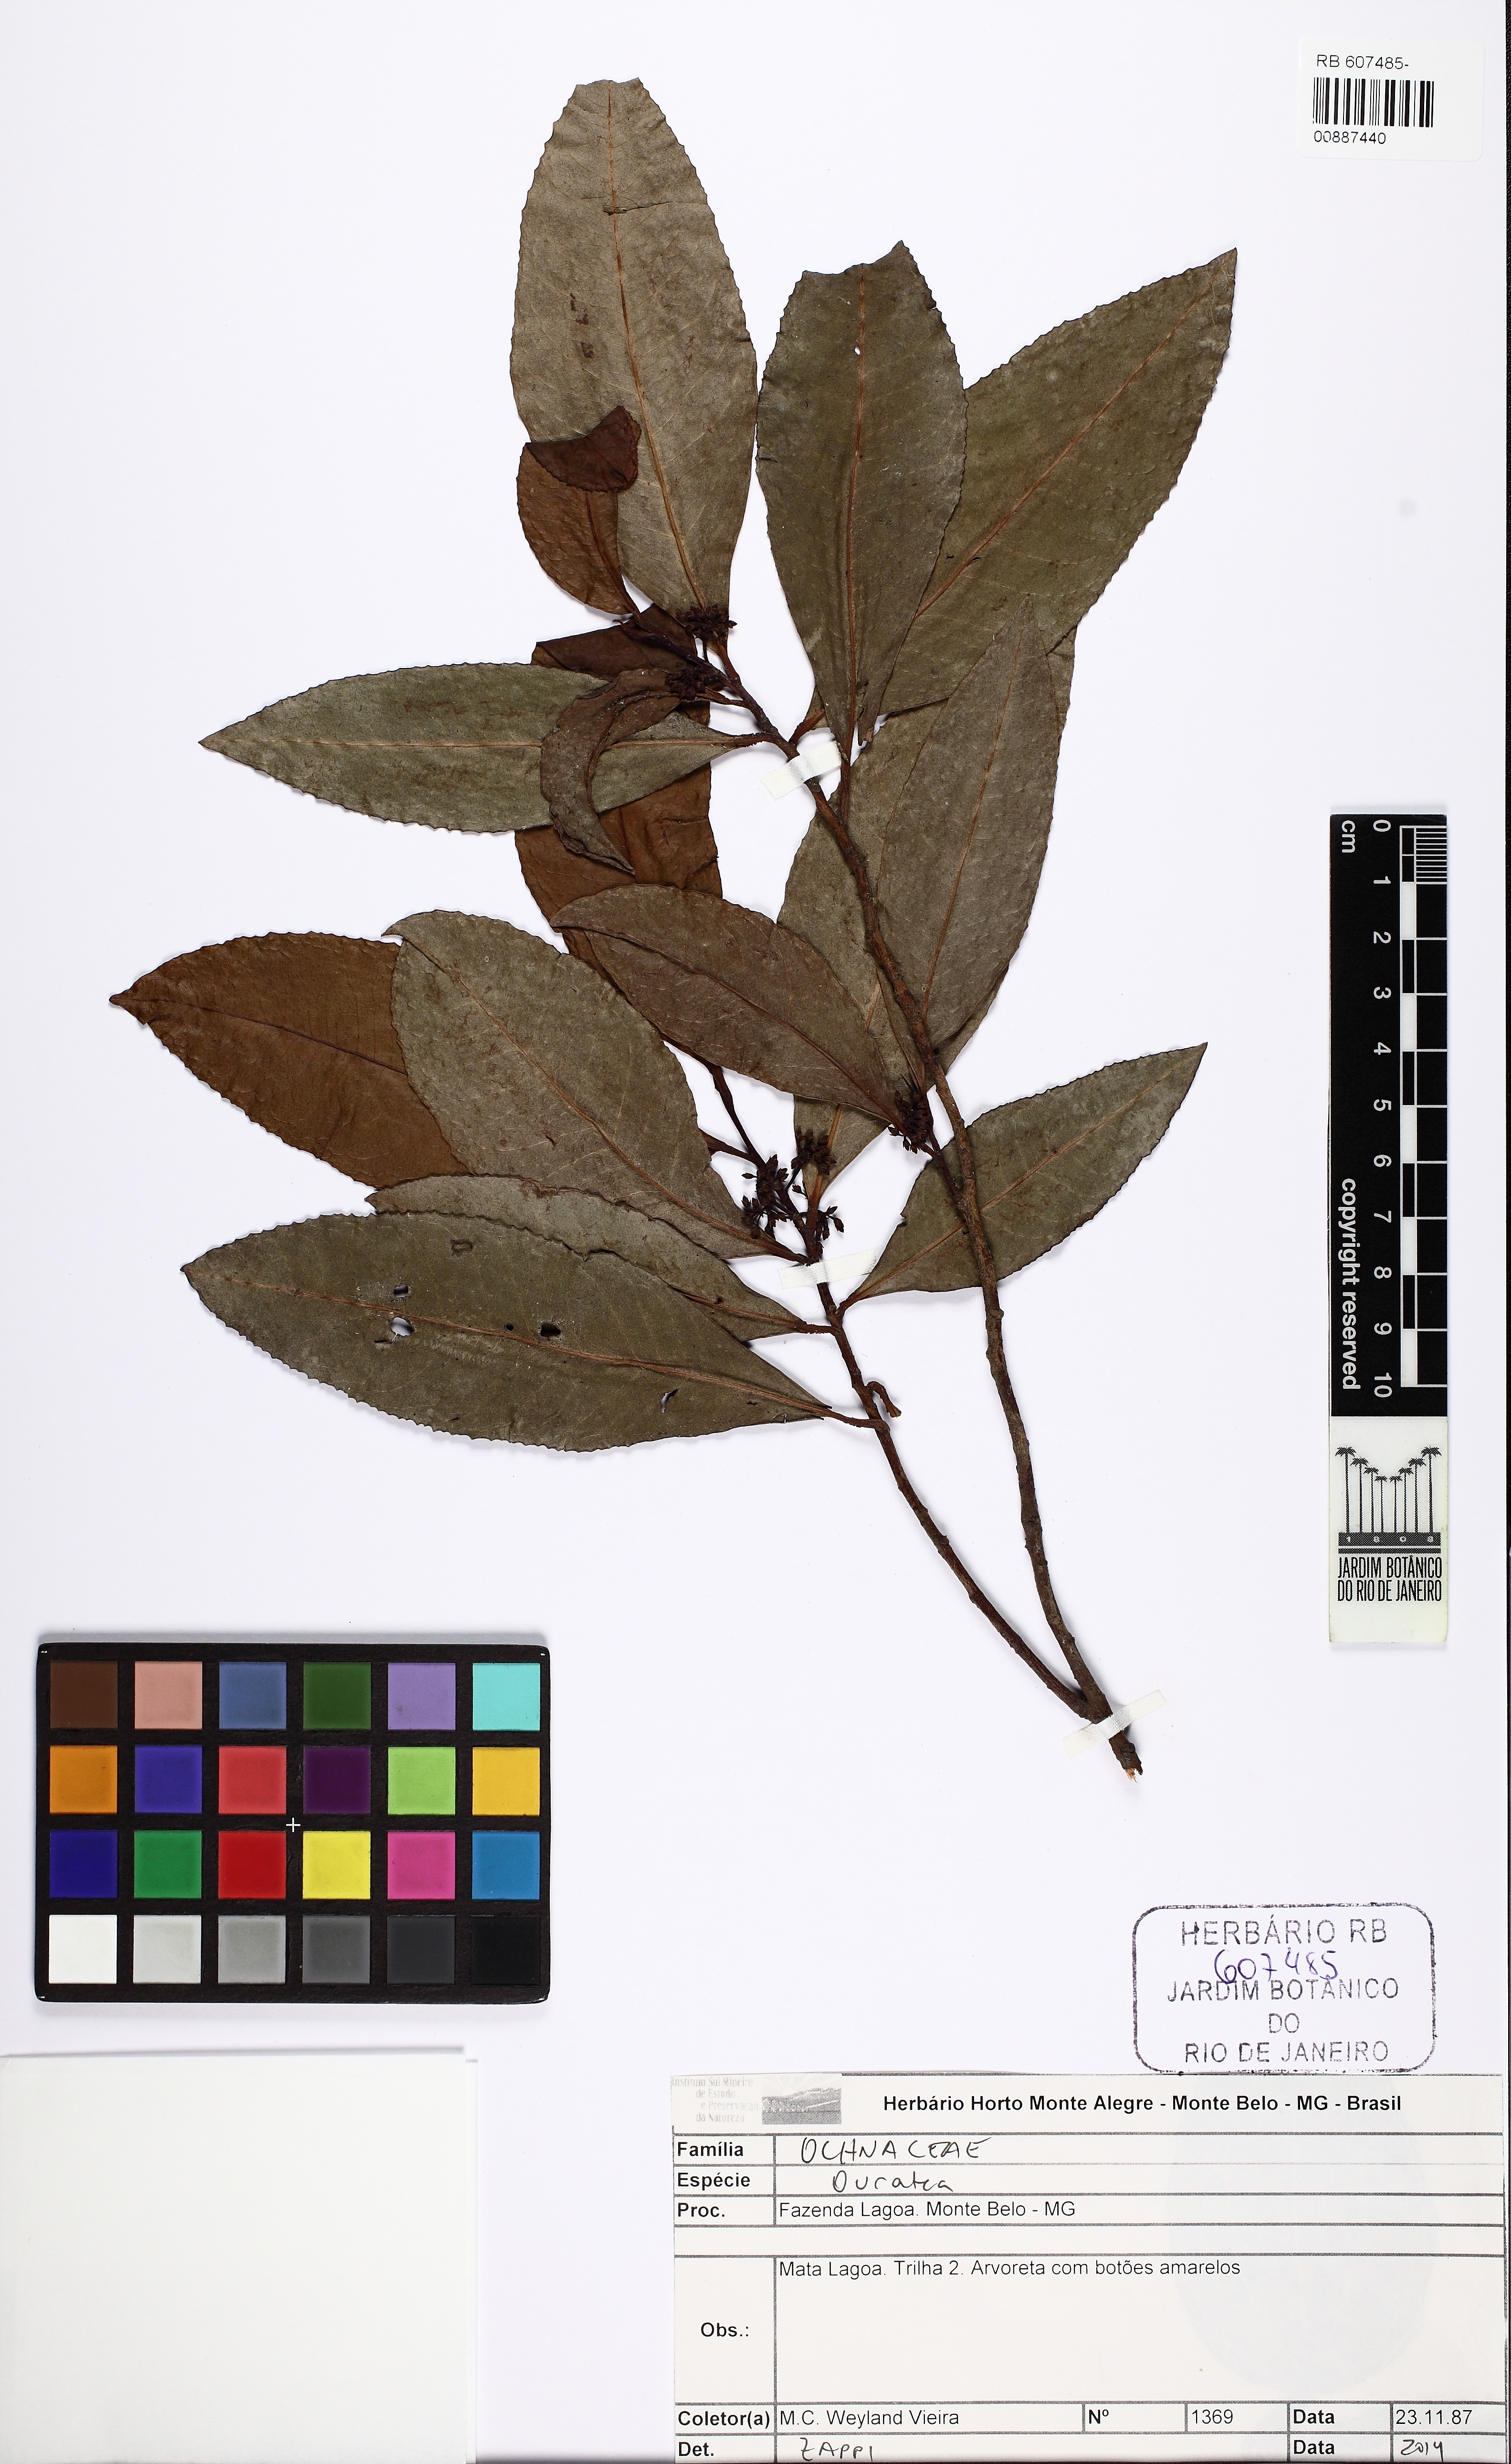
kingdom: Plantae
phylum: Tracheophyta
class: Magnoliopsida
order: Malpighiales
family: Ochnaceae
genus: Ouratea
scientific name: Ouratea
